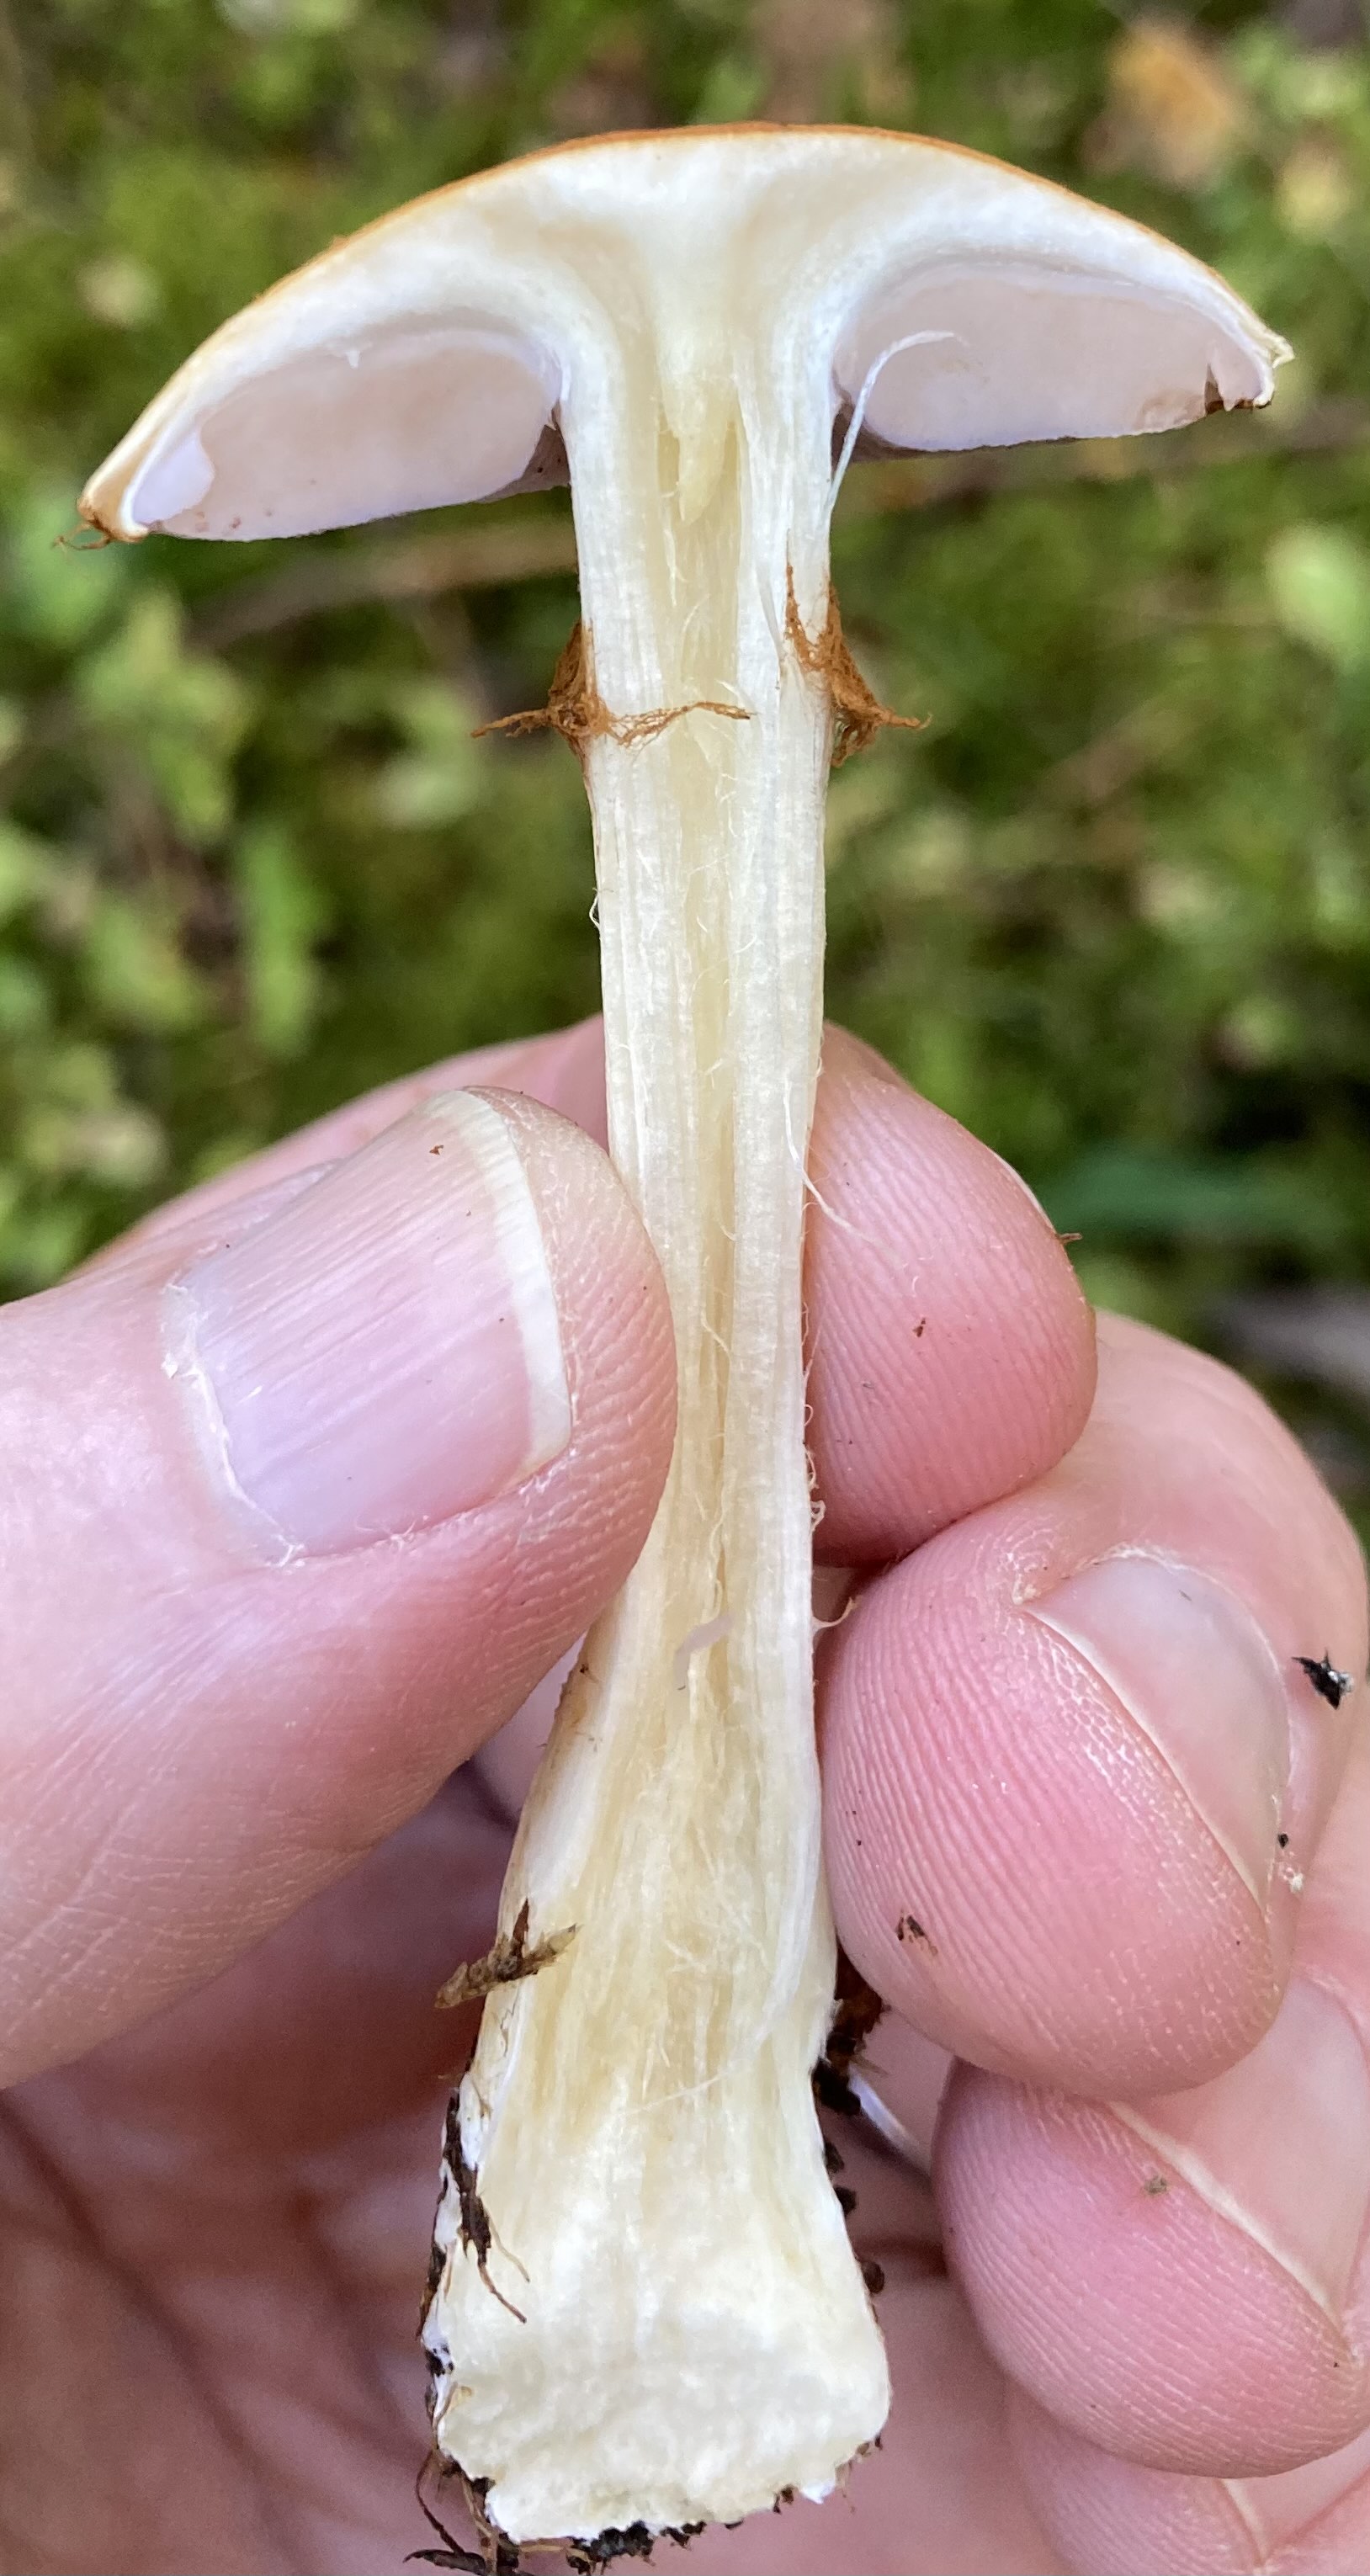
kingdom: Fungi
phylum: Basidiomycota
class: Agaricomycetes
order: Agaricales
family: Cortinariaceae
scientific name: Cortinariaceae
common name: slørhatfamilien
